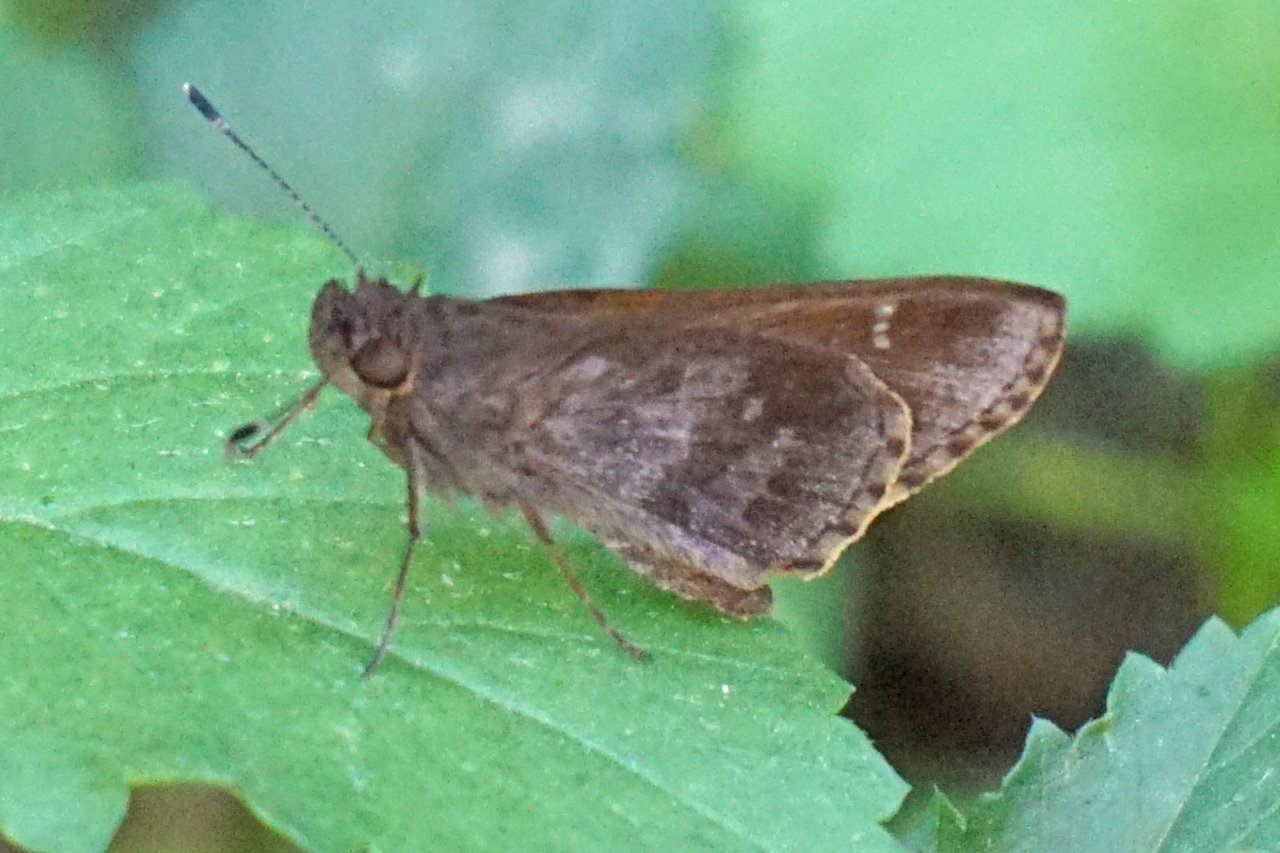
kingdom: Animalia
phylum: Arthropoda
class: Insecta
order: Lepidoptera
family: Hesperiidae
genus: Cymaenes
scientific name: Cymaenes odilia
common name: Fawn-spotted Skipper
